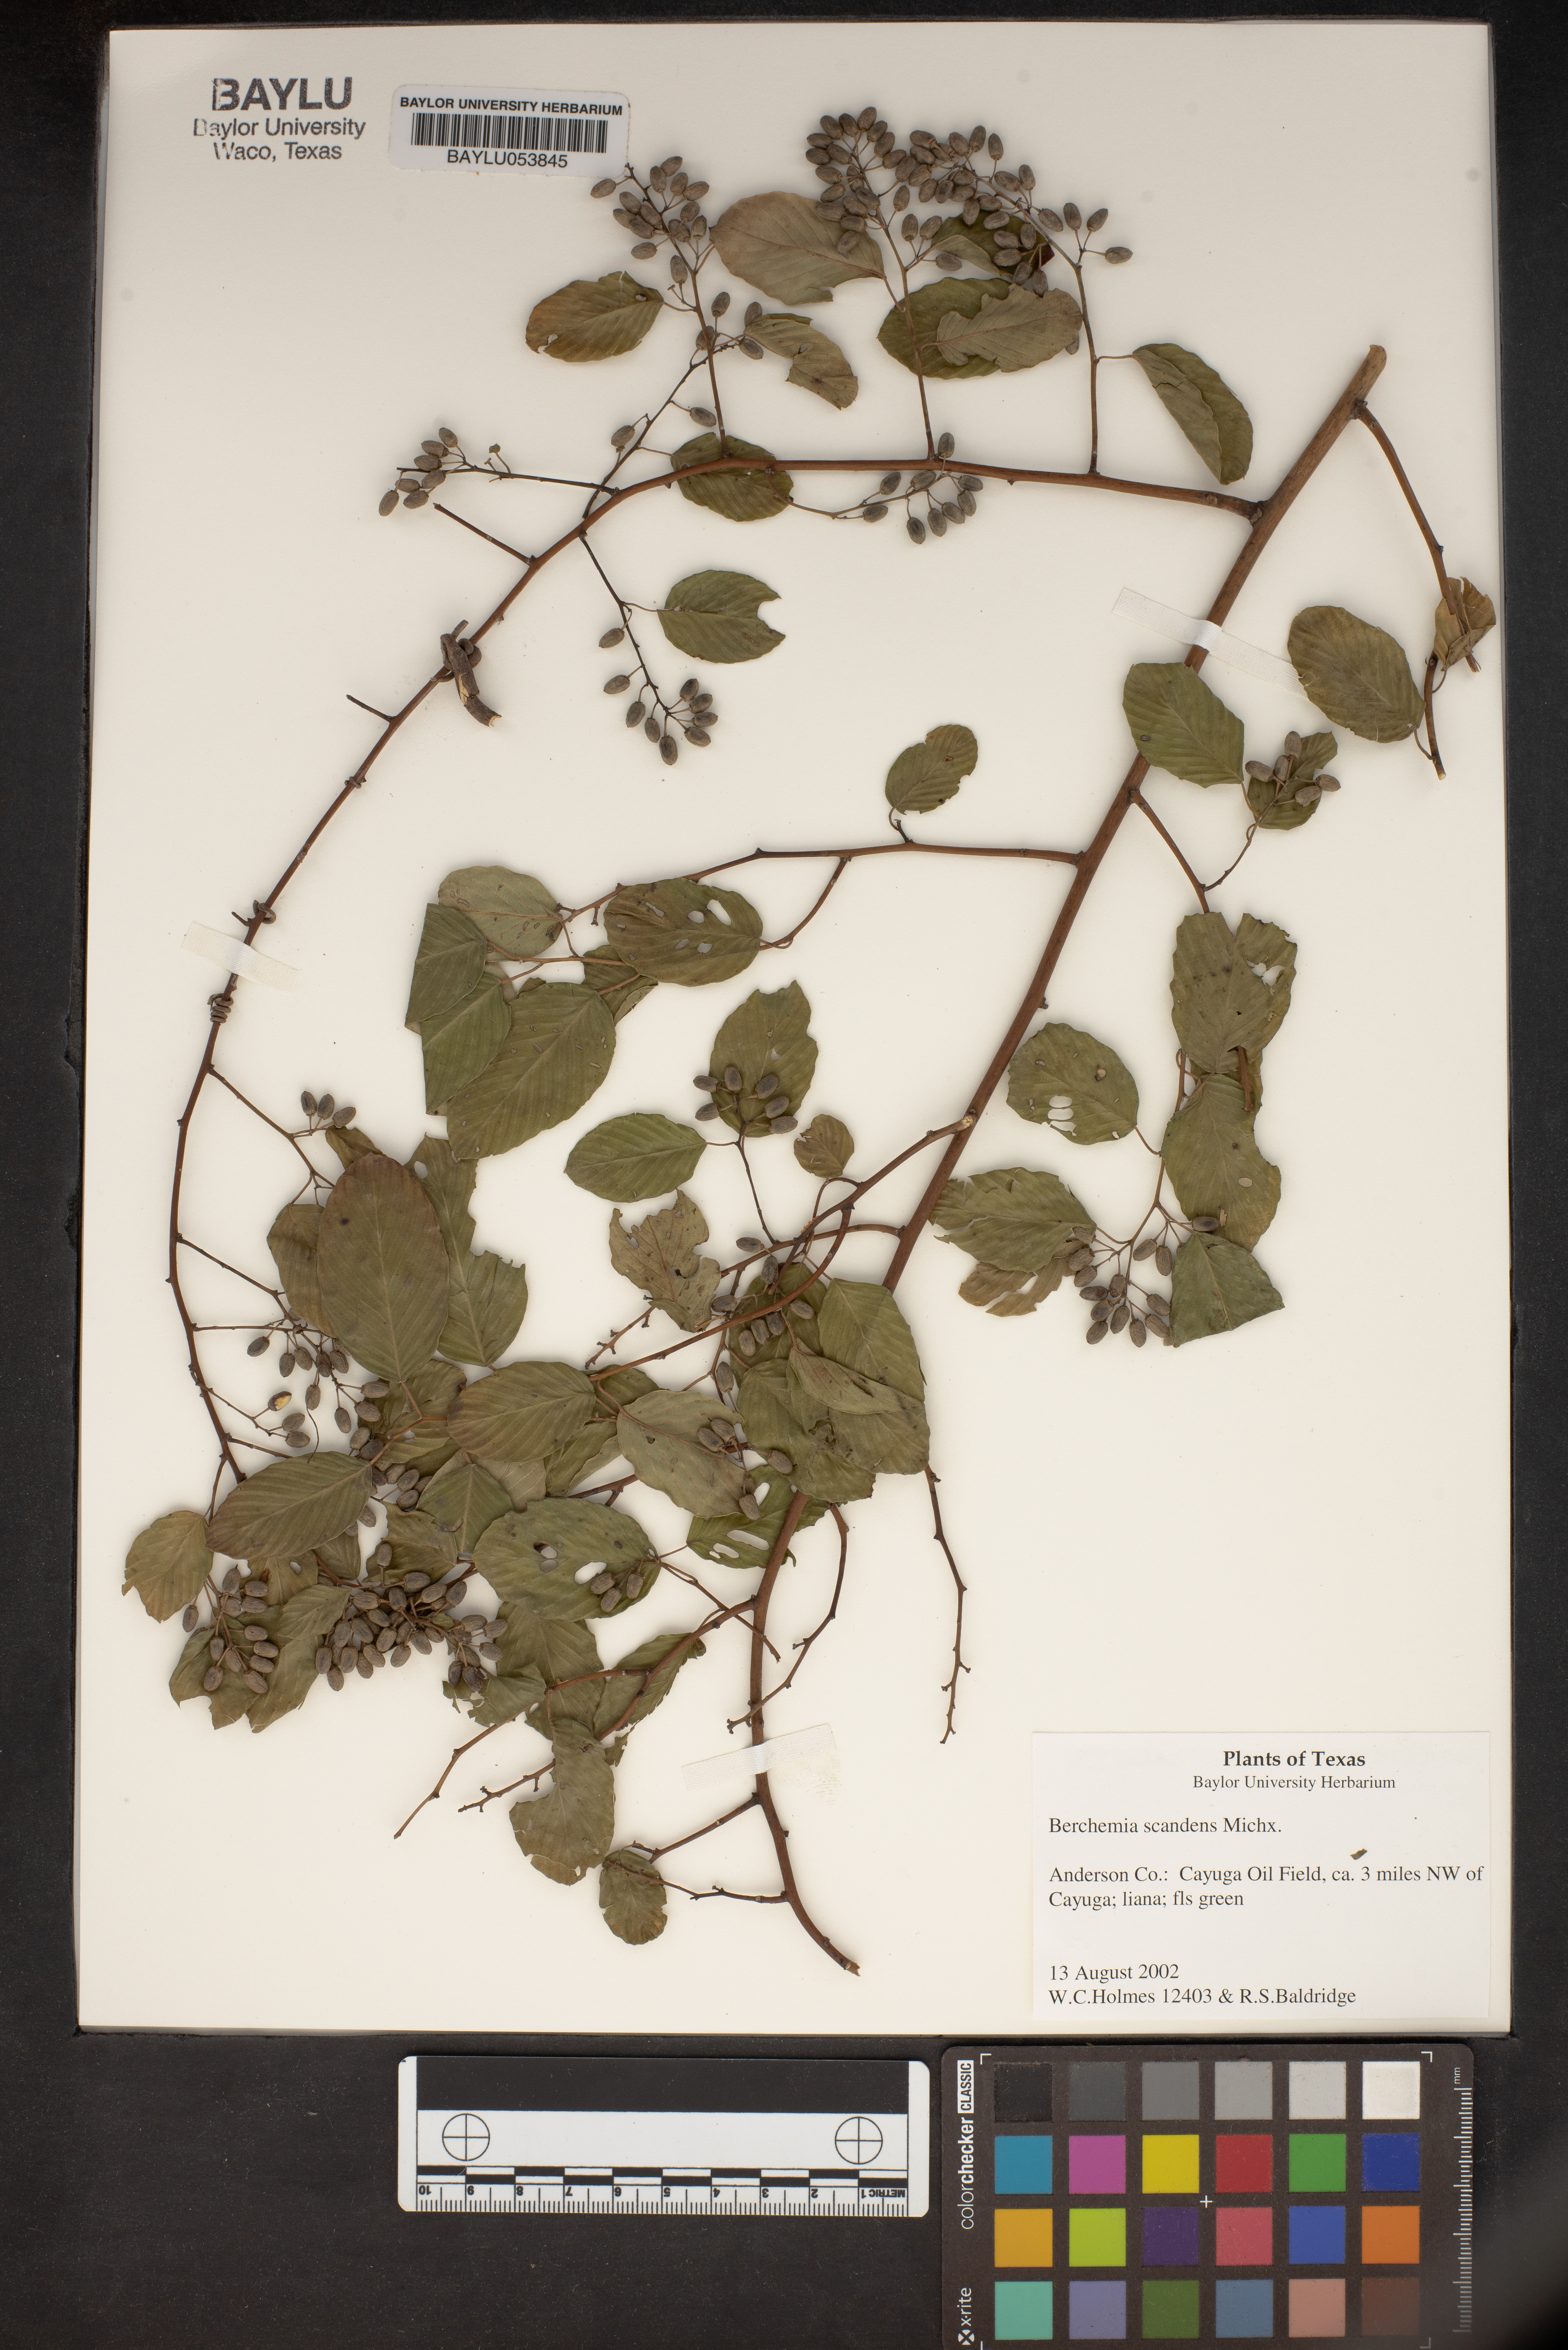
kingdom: Plantae
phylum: Tracheophyta
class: Magnoliopsida
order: Rosales
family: Rhamnaceae
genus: Berchemia
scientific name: Berchemia scandens
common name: Supplejack
